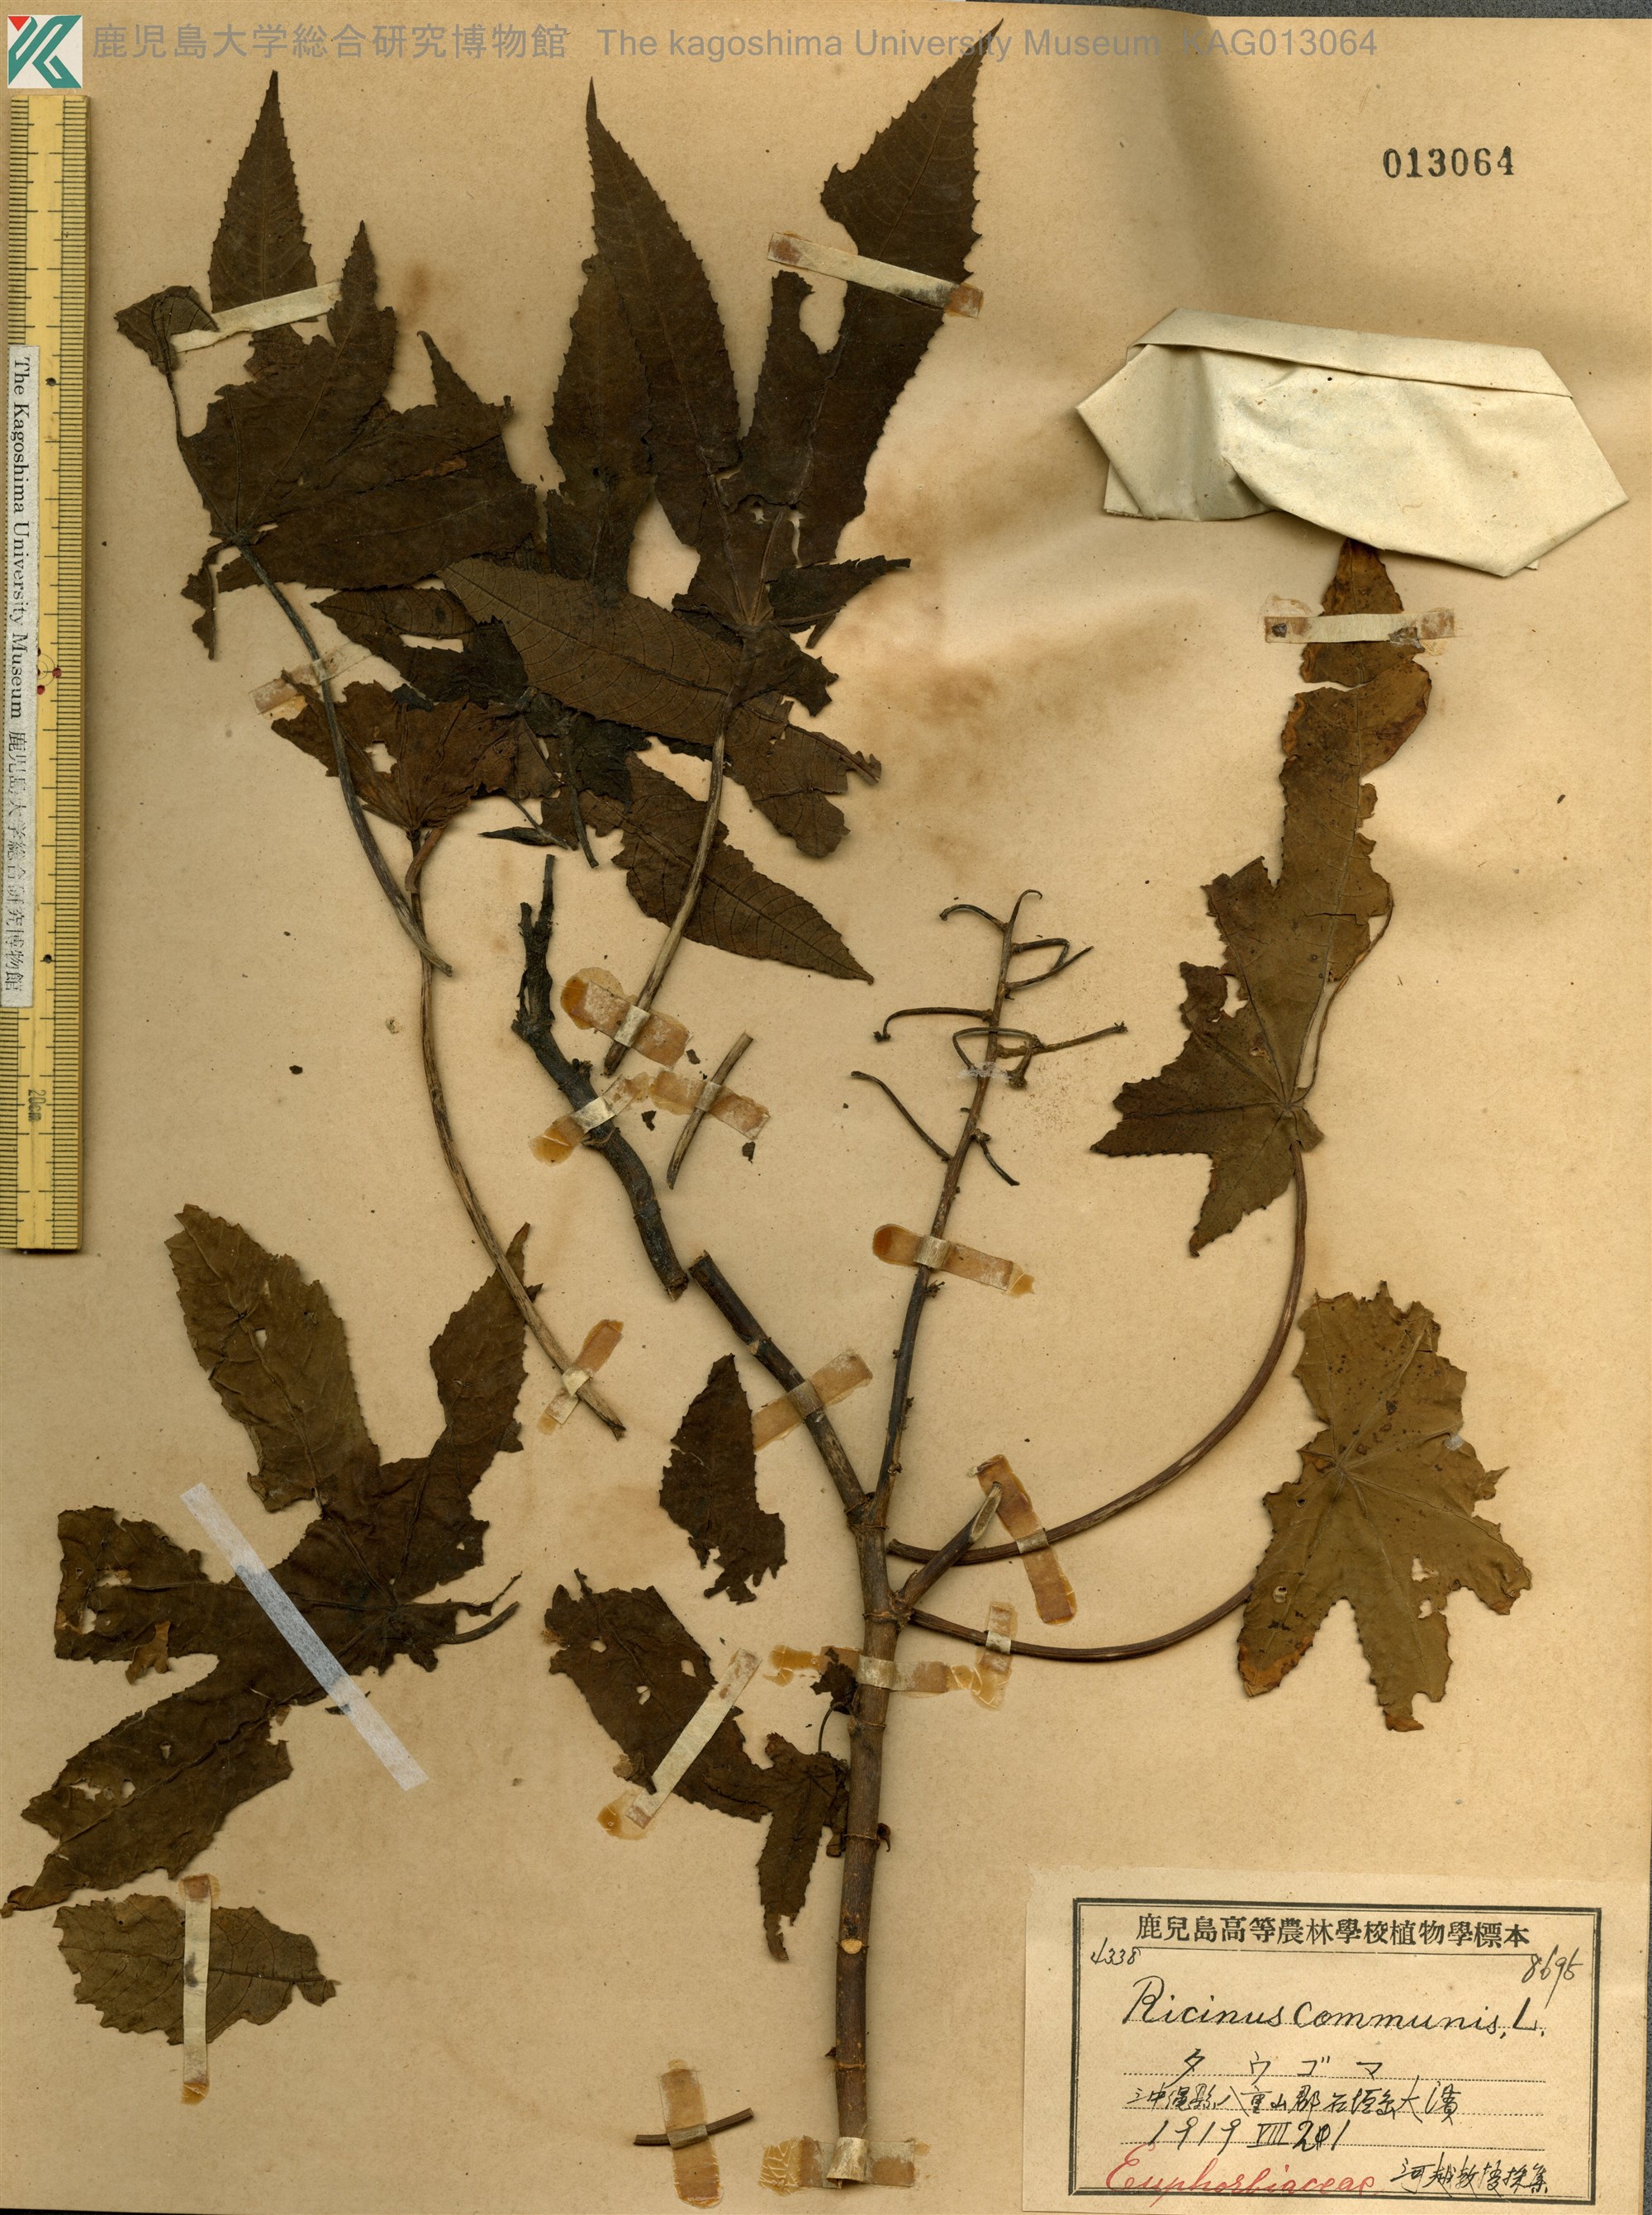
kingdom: Plantae
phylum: Tracheophyta
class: Magnoliopsida
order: Malpighiales
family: Euphorbiaceae
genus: Ricinus
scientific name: Ricinus communis
